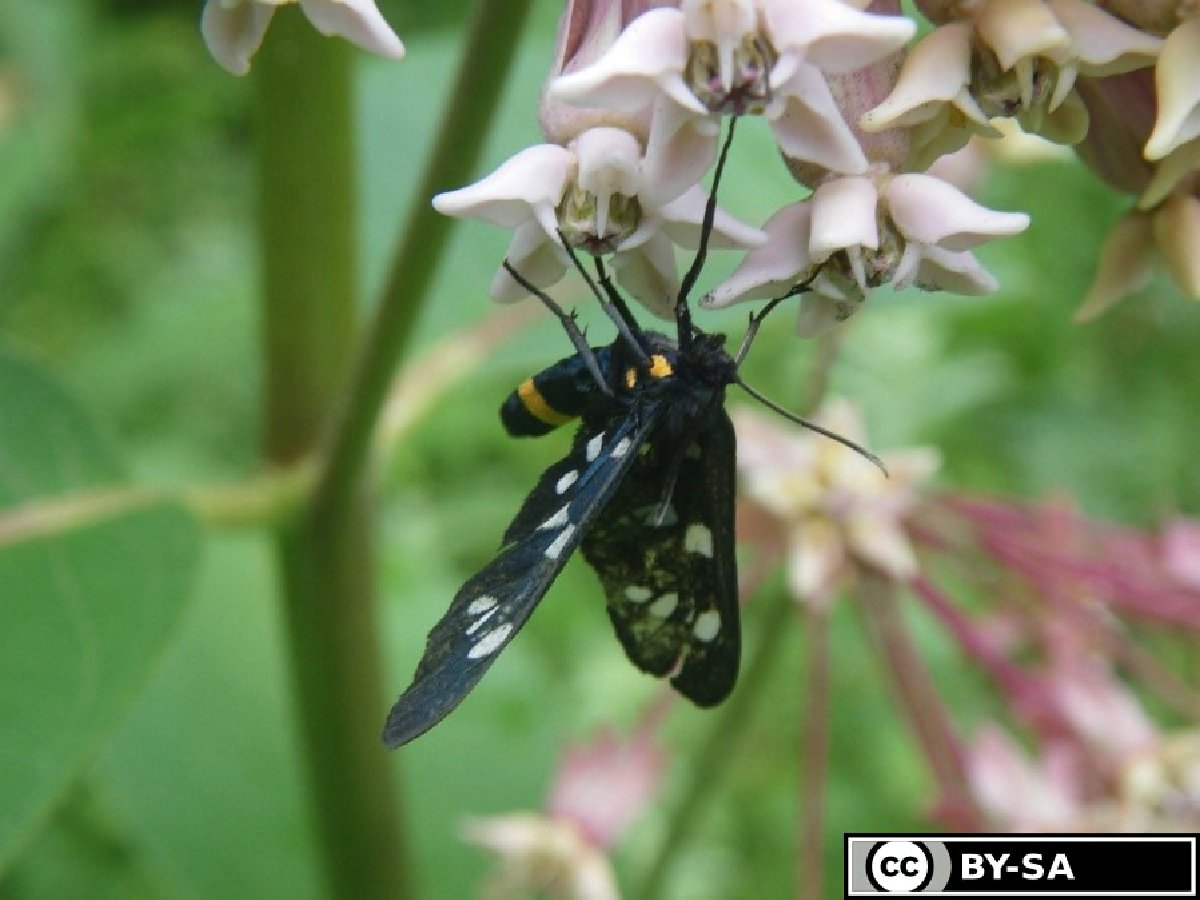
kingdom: Plantae
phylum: Tracheophyta
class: Magnoliopsida
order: Gentianales
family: Apocynaceae
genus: Asclepias
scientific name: Asclepias syriaca
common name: Common milkweed
